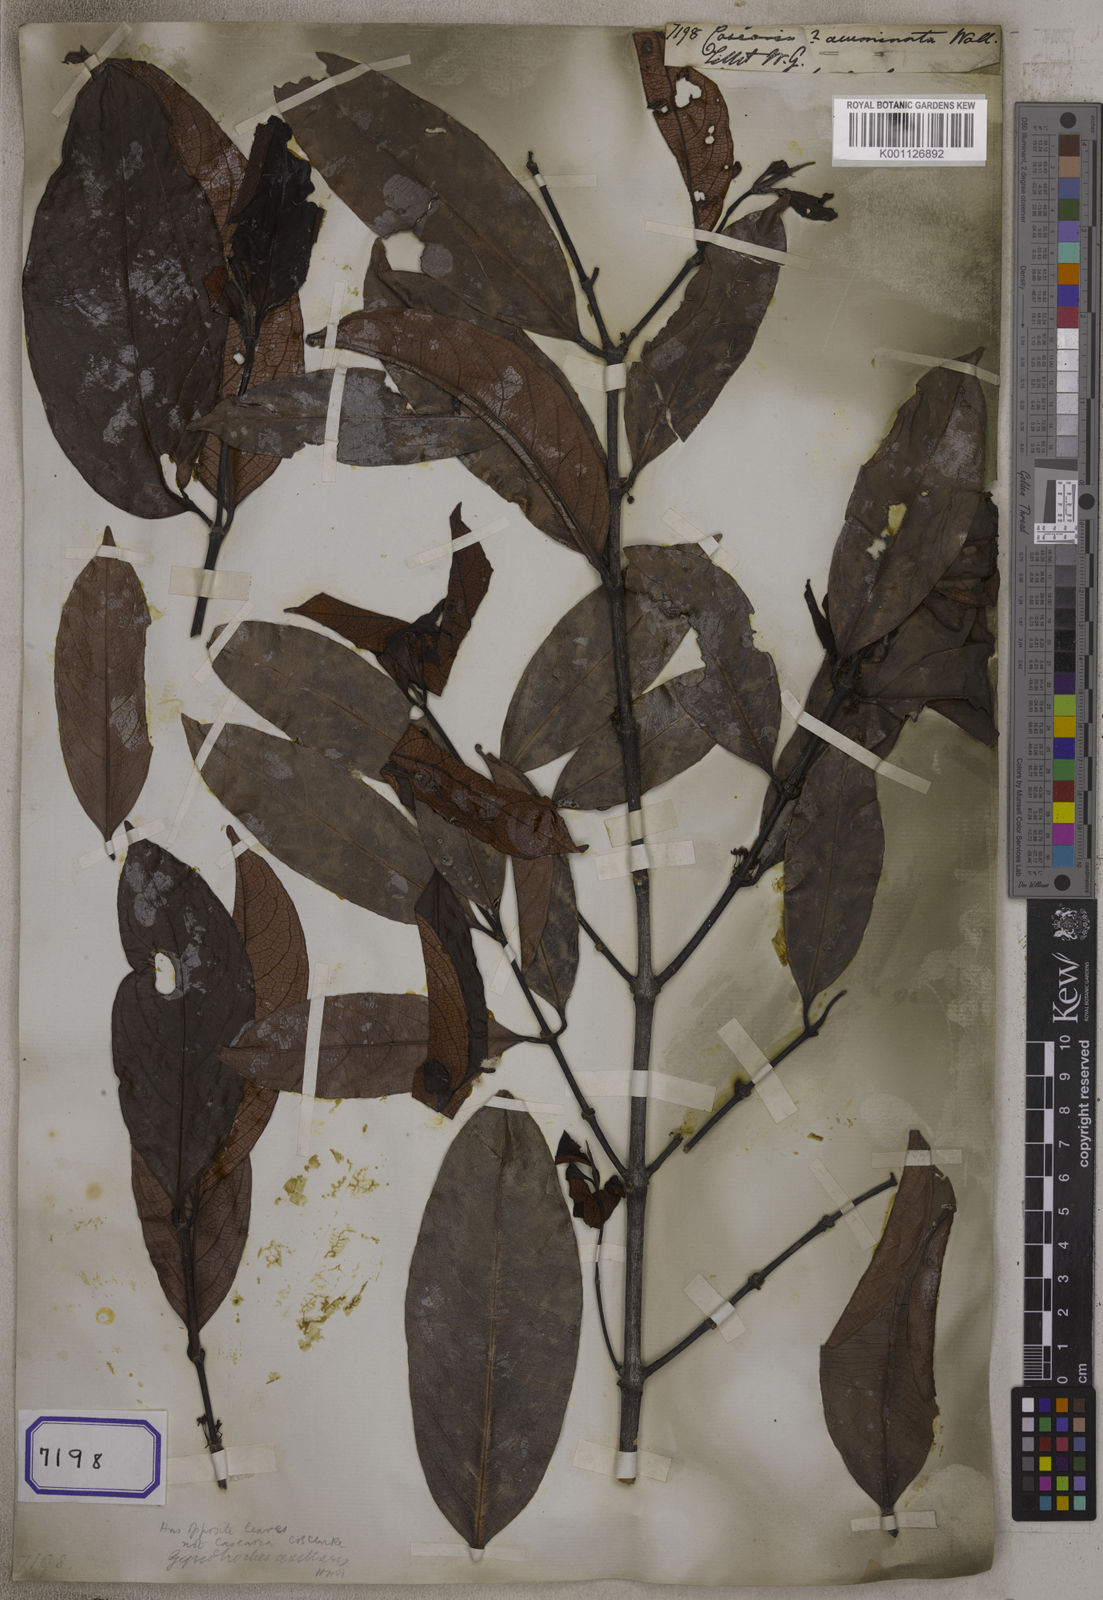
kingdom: Plantae
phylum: Tracheophyta
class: Magnoliopsida
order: Malpighiales
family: Salicaceae
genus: Casearia
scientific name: Casearia
